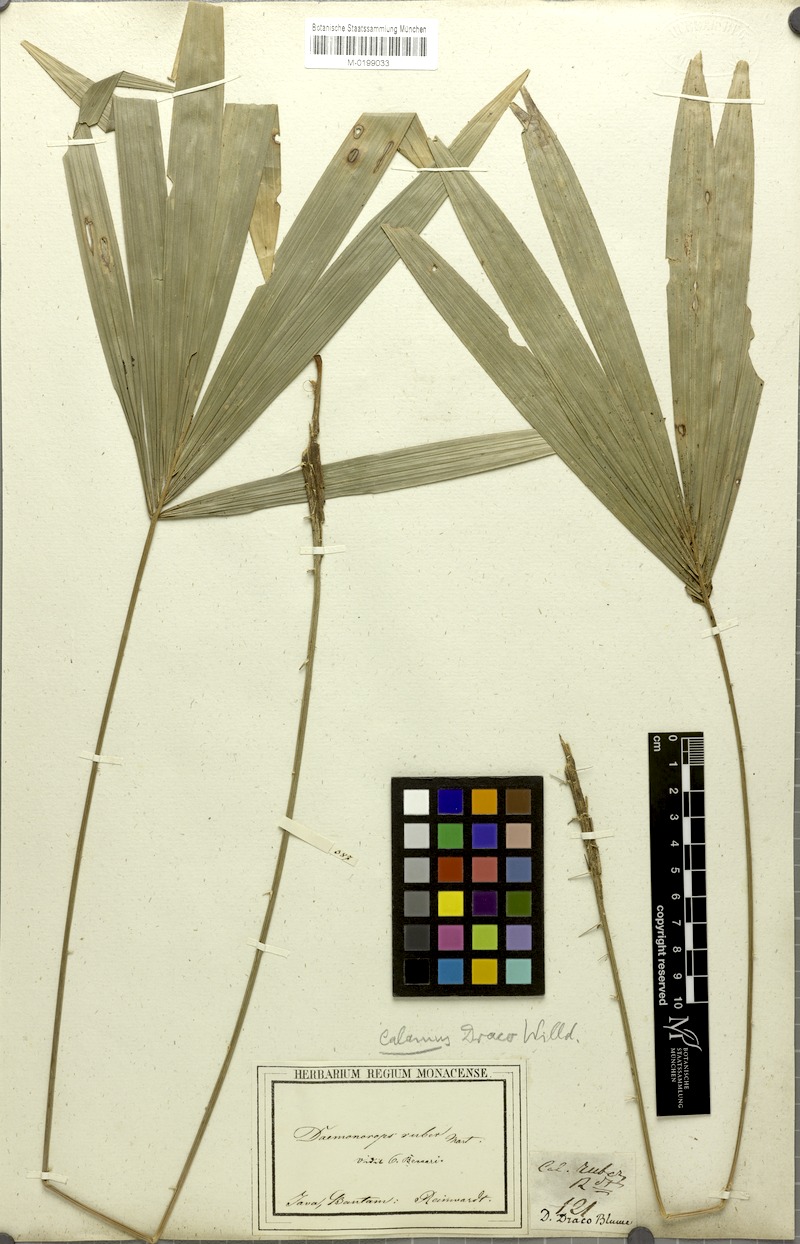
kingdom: Plantae
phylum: Tracheophyta
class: Liliopsida
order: Arecales
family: Arecaceae
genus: Calamus
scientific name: Calamus ruber
